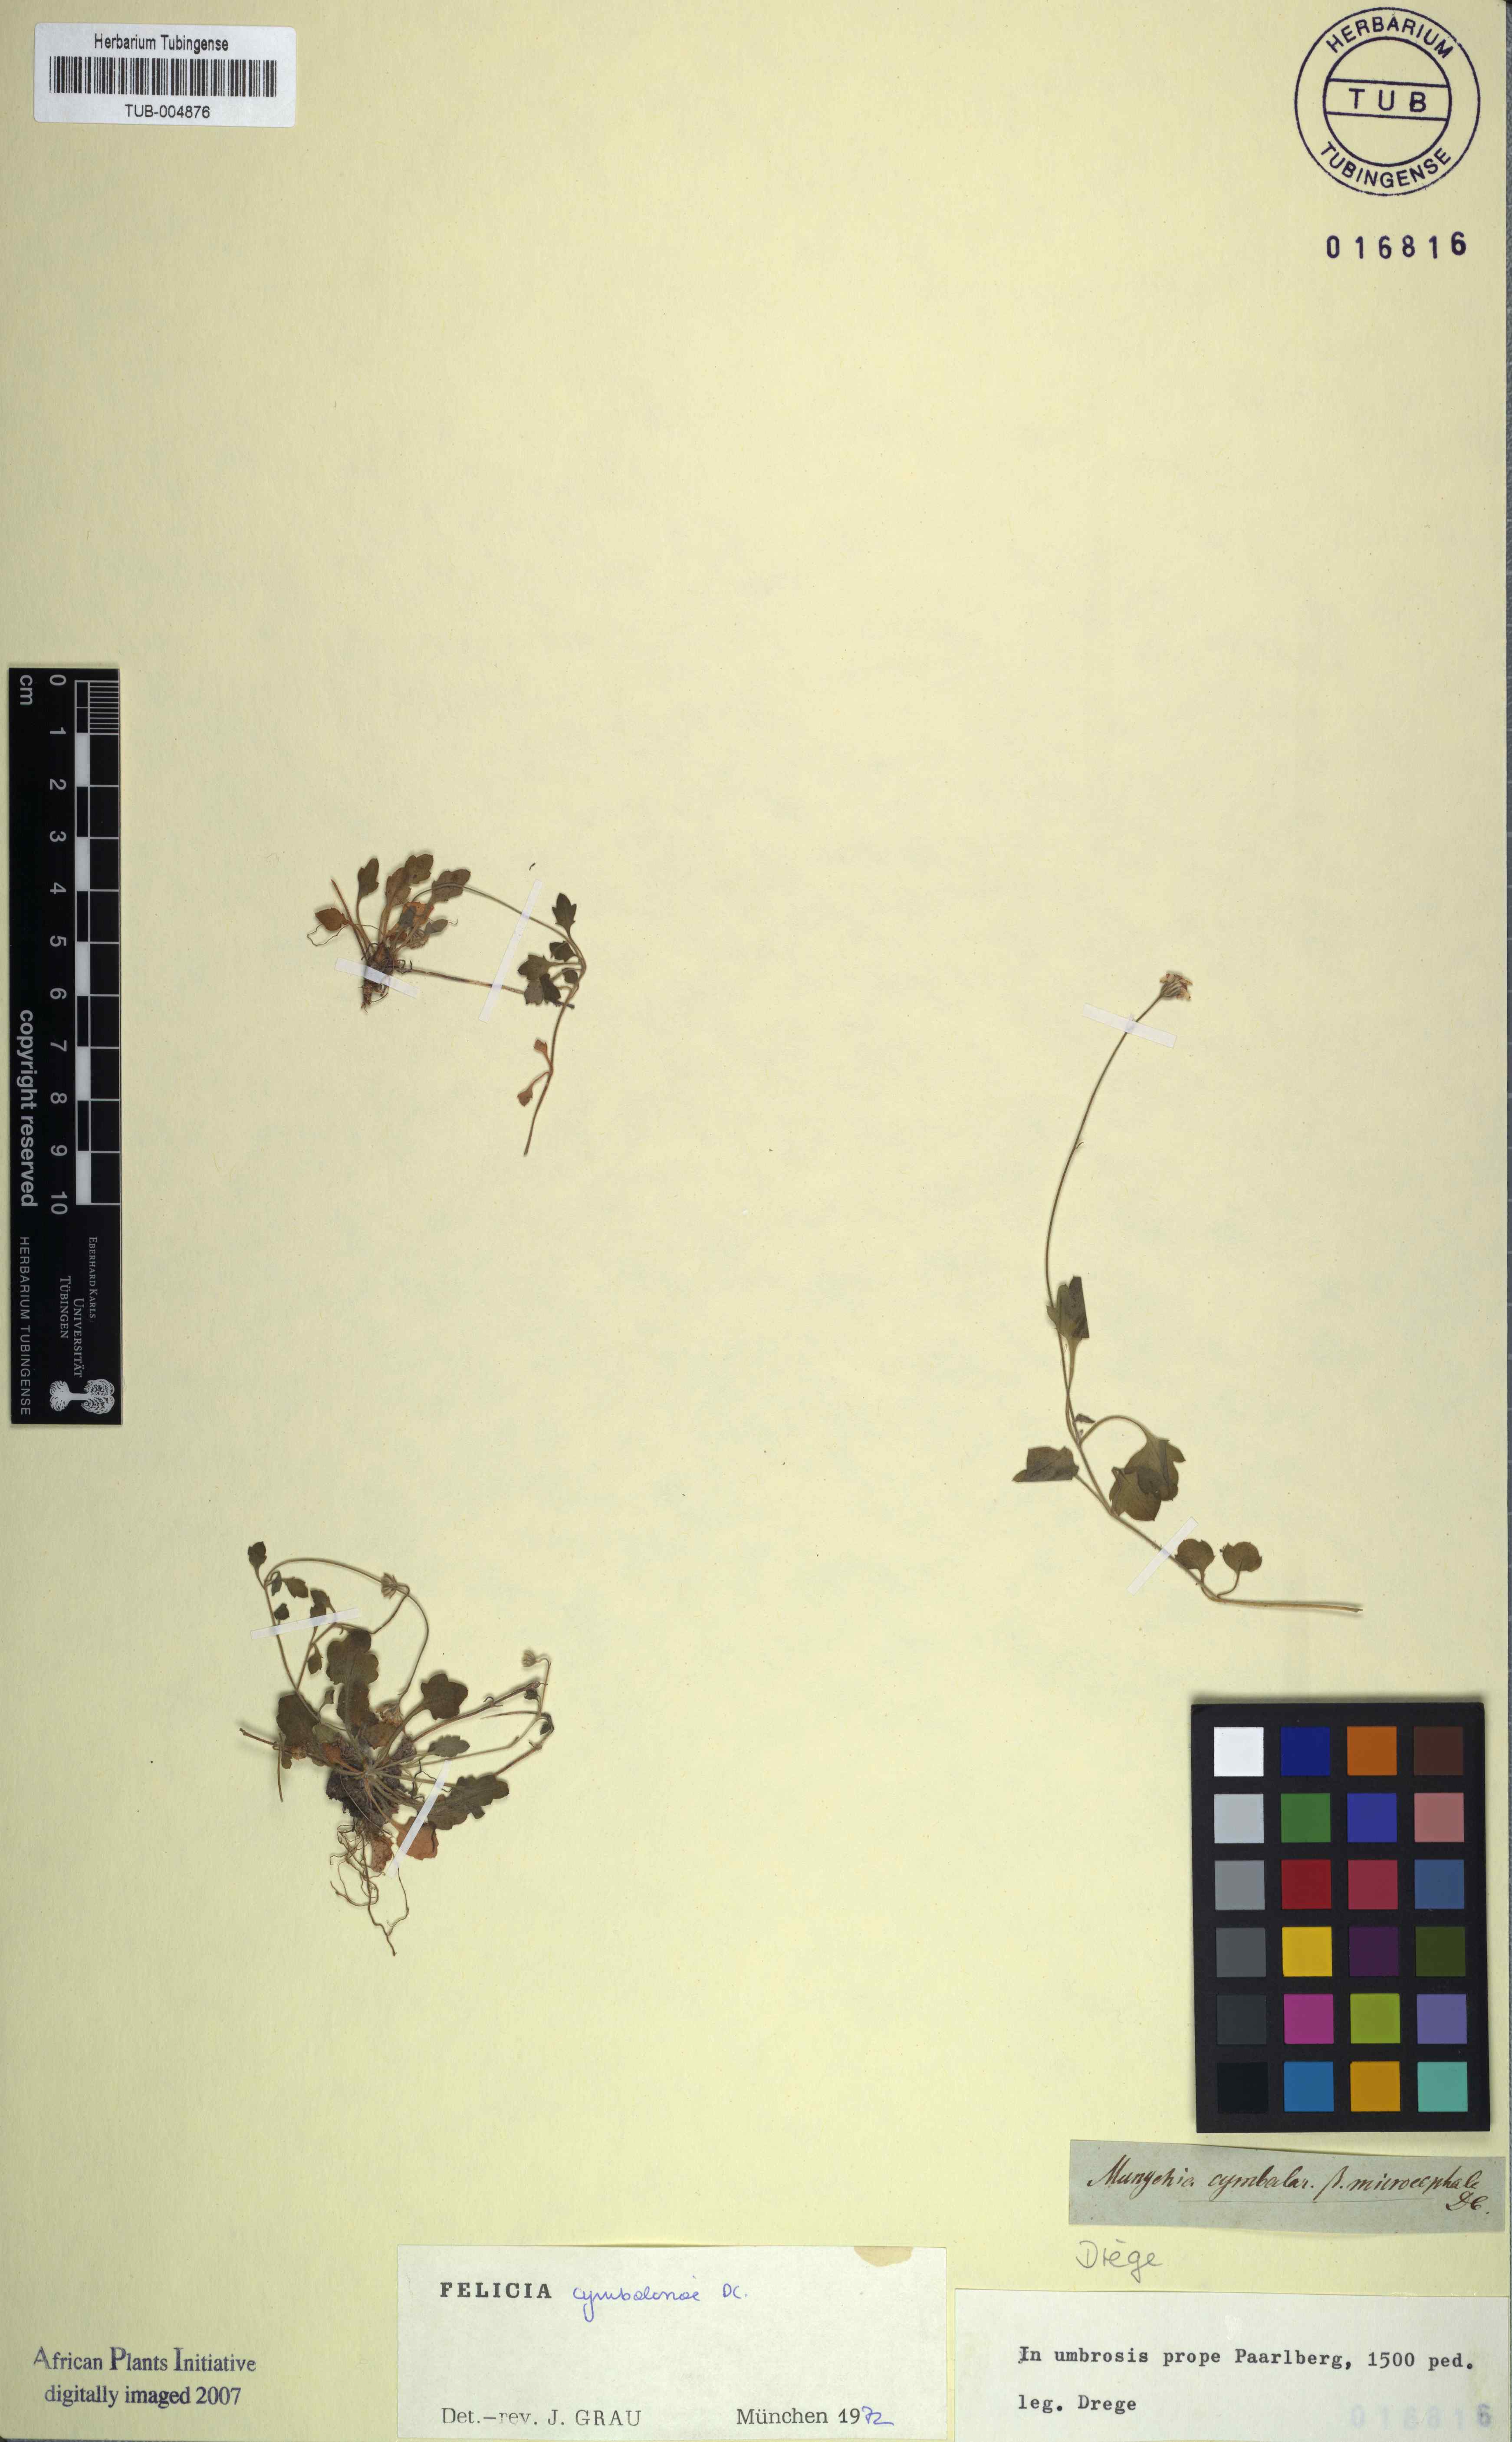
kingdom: Plantae
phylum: Tracheophyta
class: Magnoliopsida
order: Asterales
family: Asteraceae
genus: Felicia
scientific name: Felicia cymbalariae
